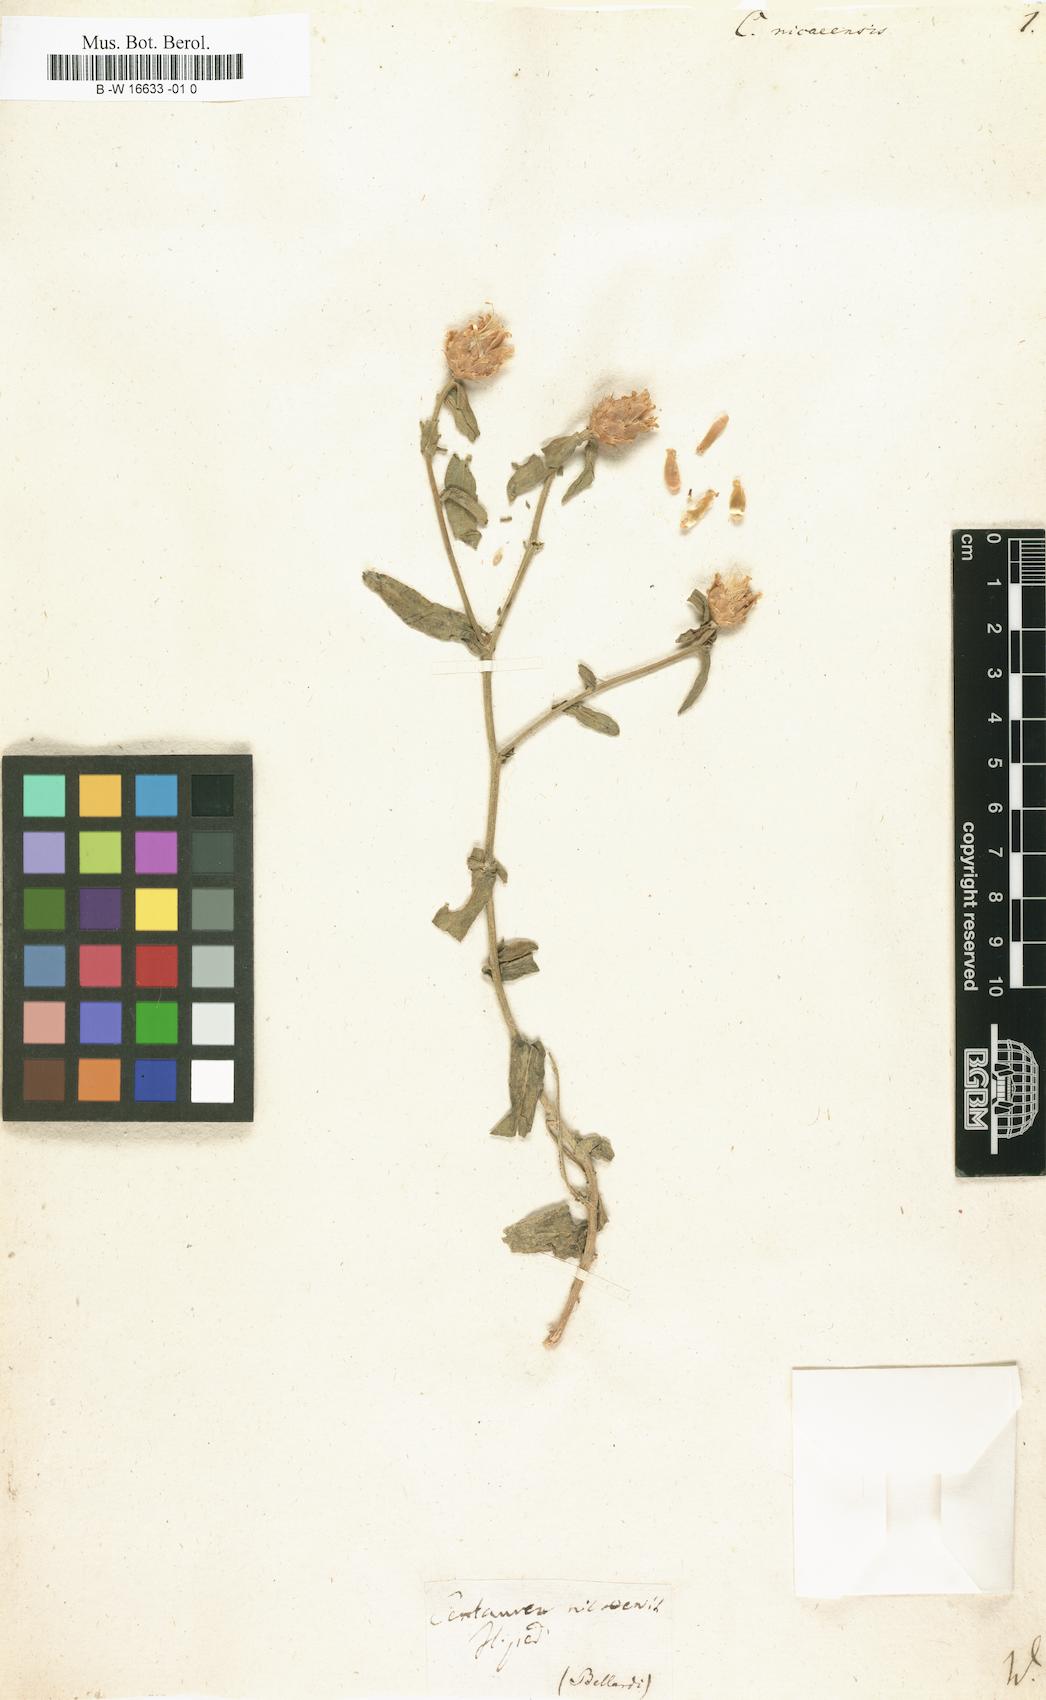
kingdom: Plantae
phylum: Tracheophyta
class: Magnoliopsida
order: Asterales
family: Asteraceae
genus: Centaurea
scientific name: Centaurea sicula
